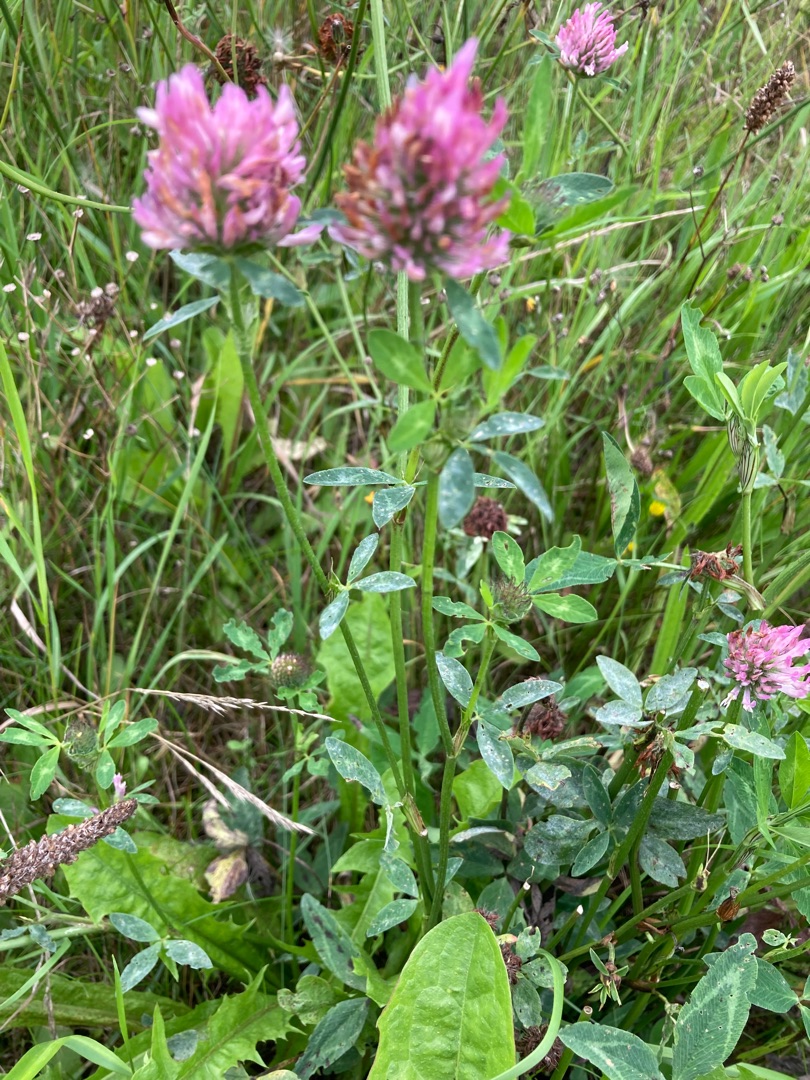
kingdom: Plantae
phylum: Tracheophyta
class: Magnoliopsida
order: Fabales
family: Fabaceae
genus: Trifolium
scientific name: Trifolium pratense
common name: Rød-kløver
